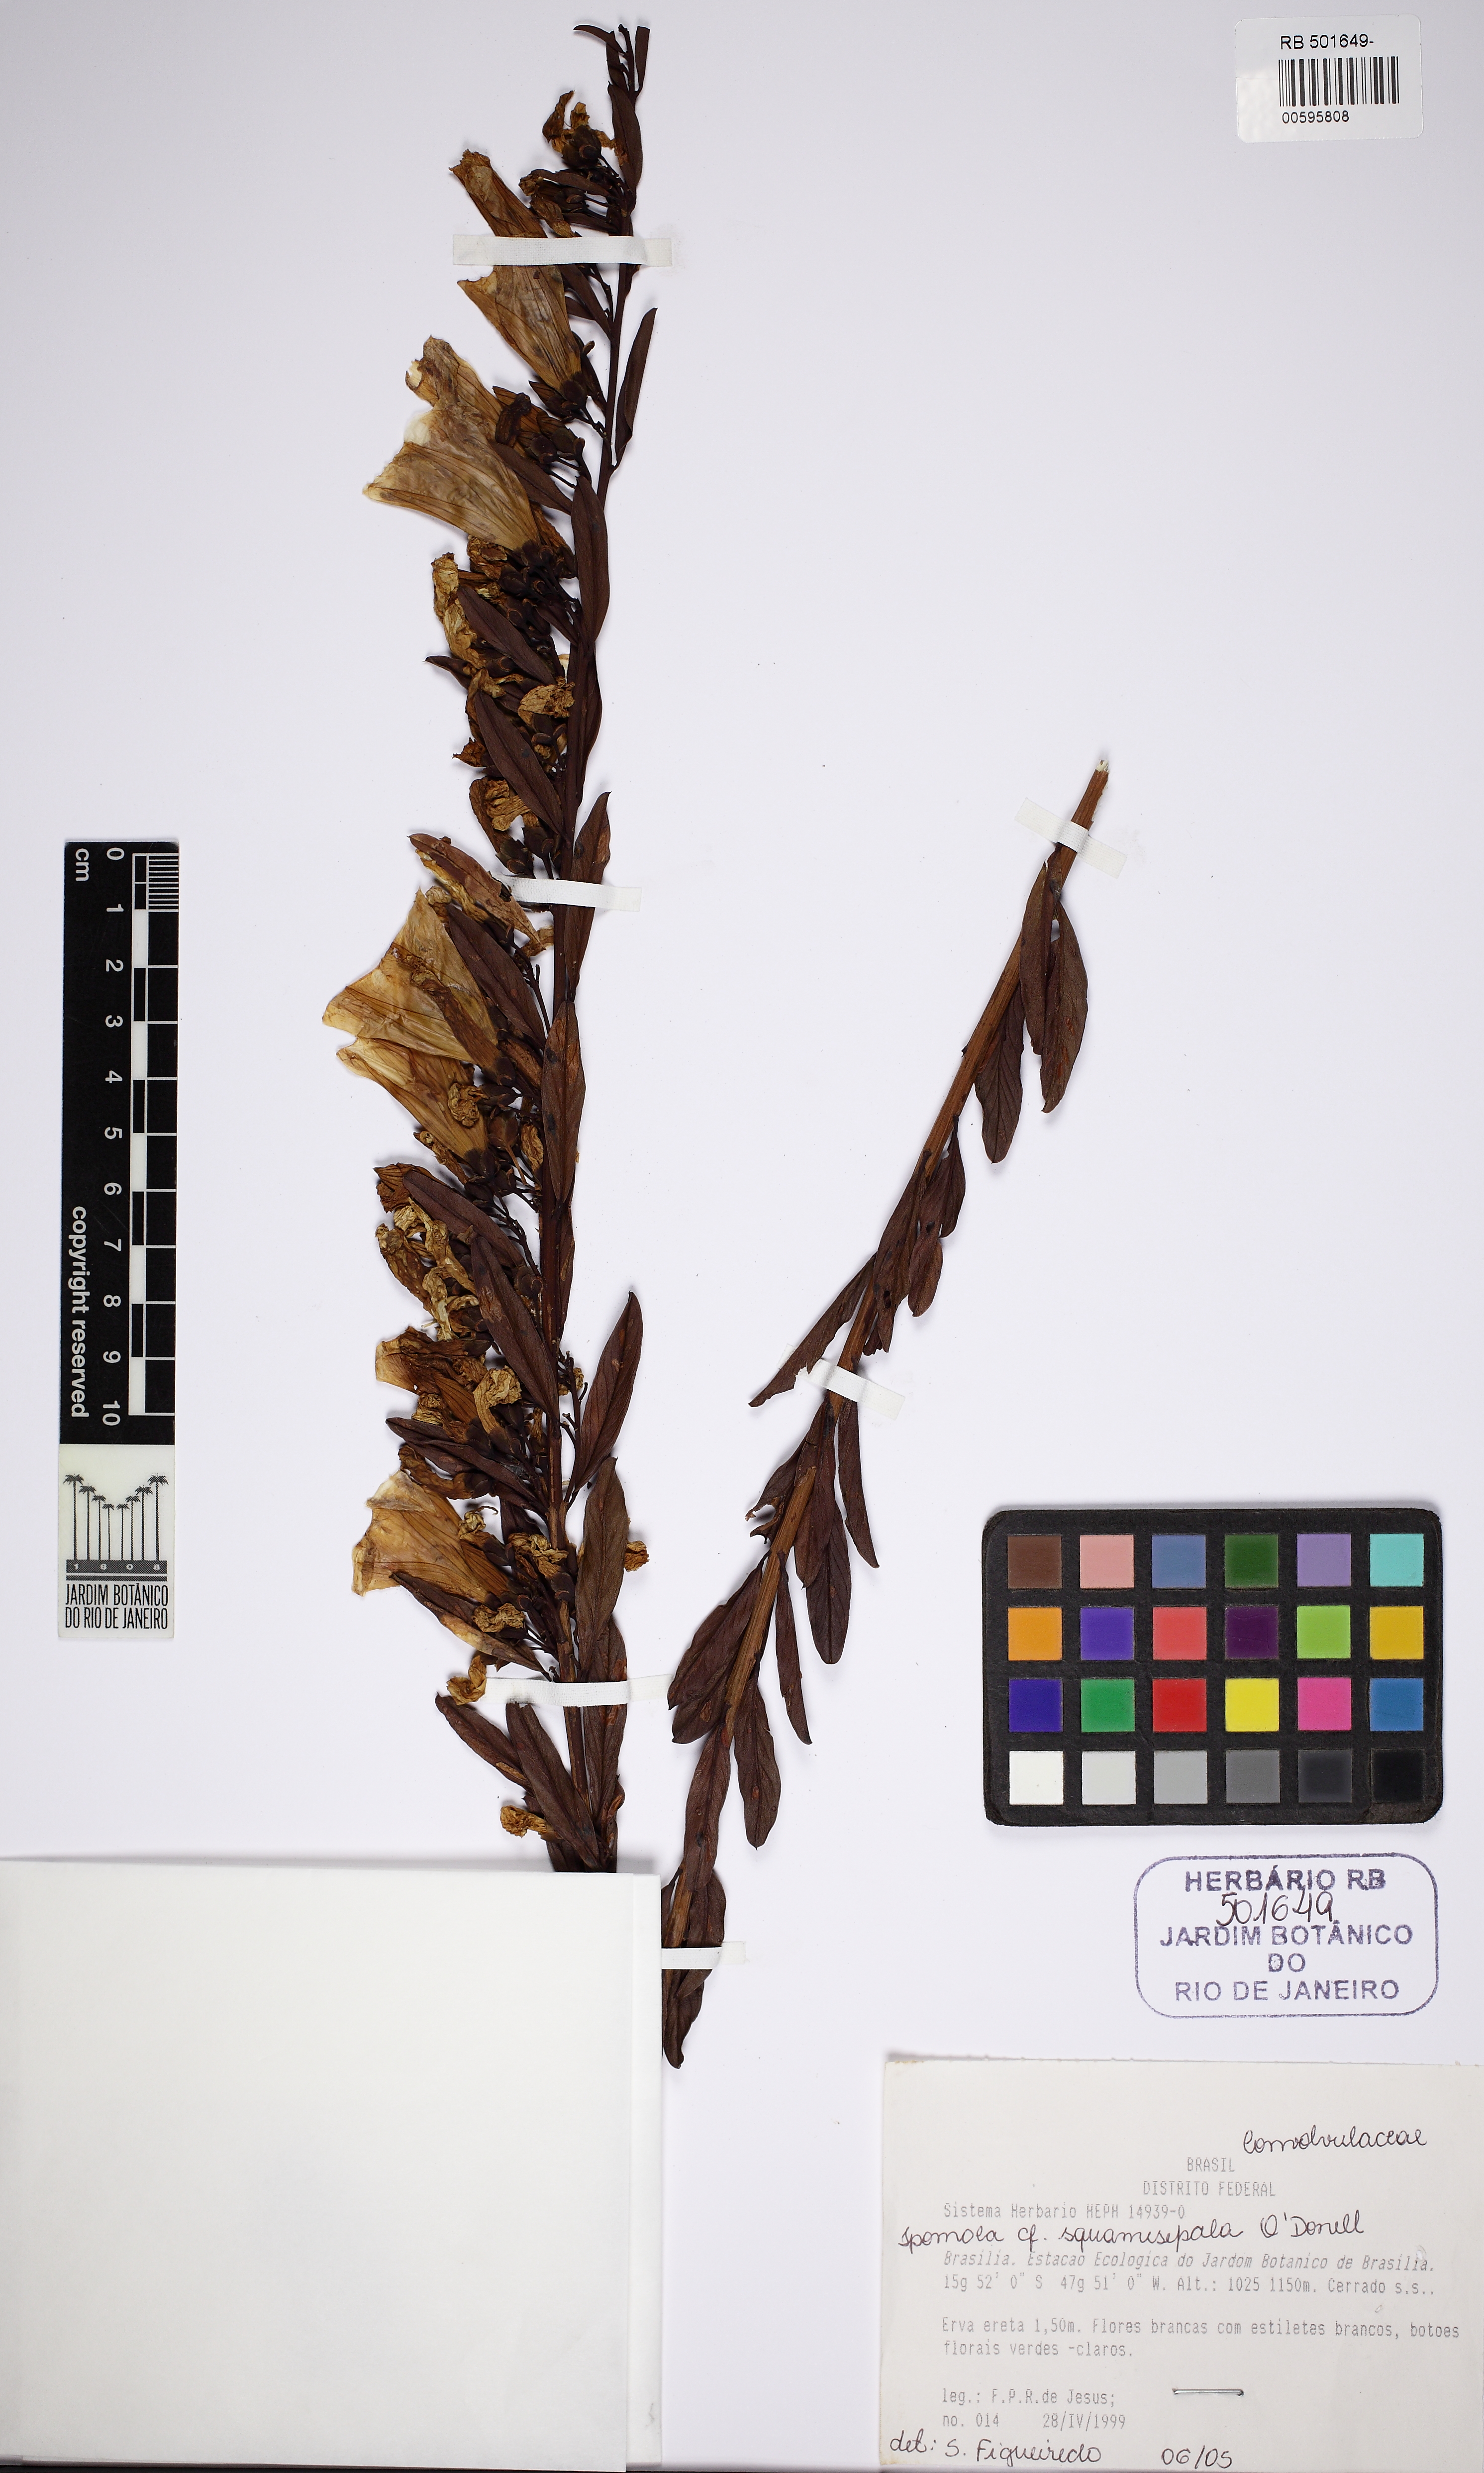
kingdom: Plantae
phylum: Tracheophyta
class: Magnoliopsida
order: Solanales
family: Convolvulaceae
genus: Ipomoea
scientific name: Ipomoea squamisepala
